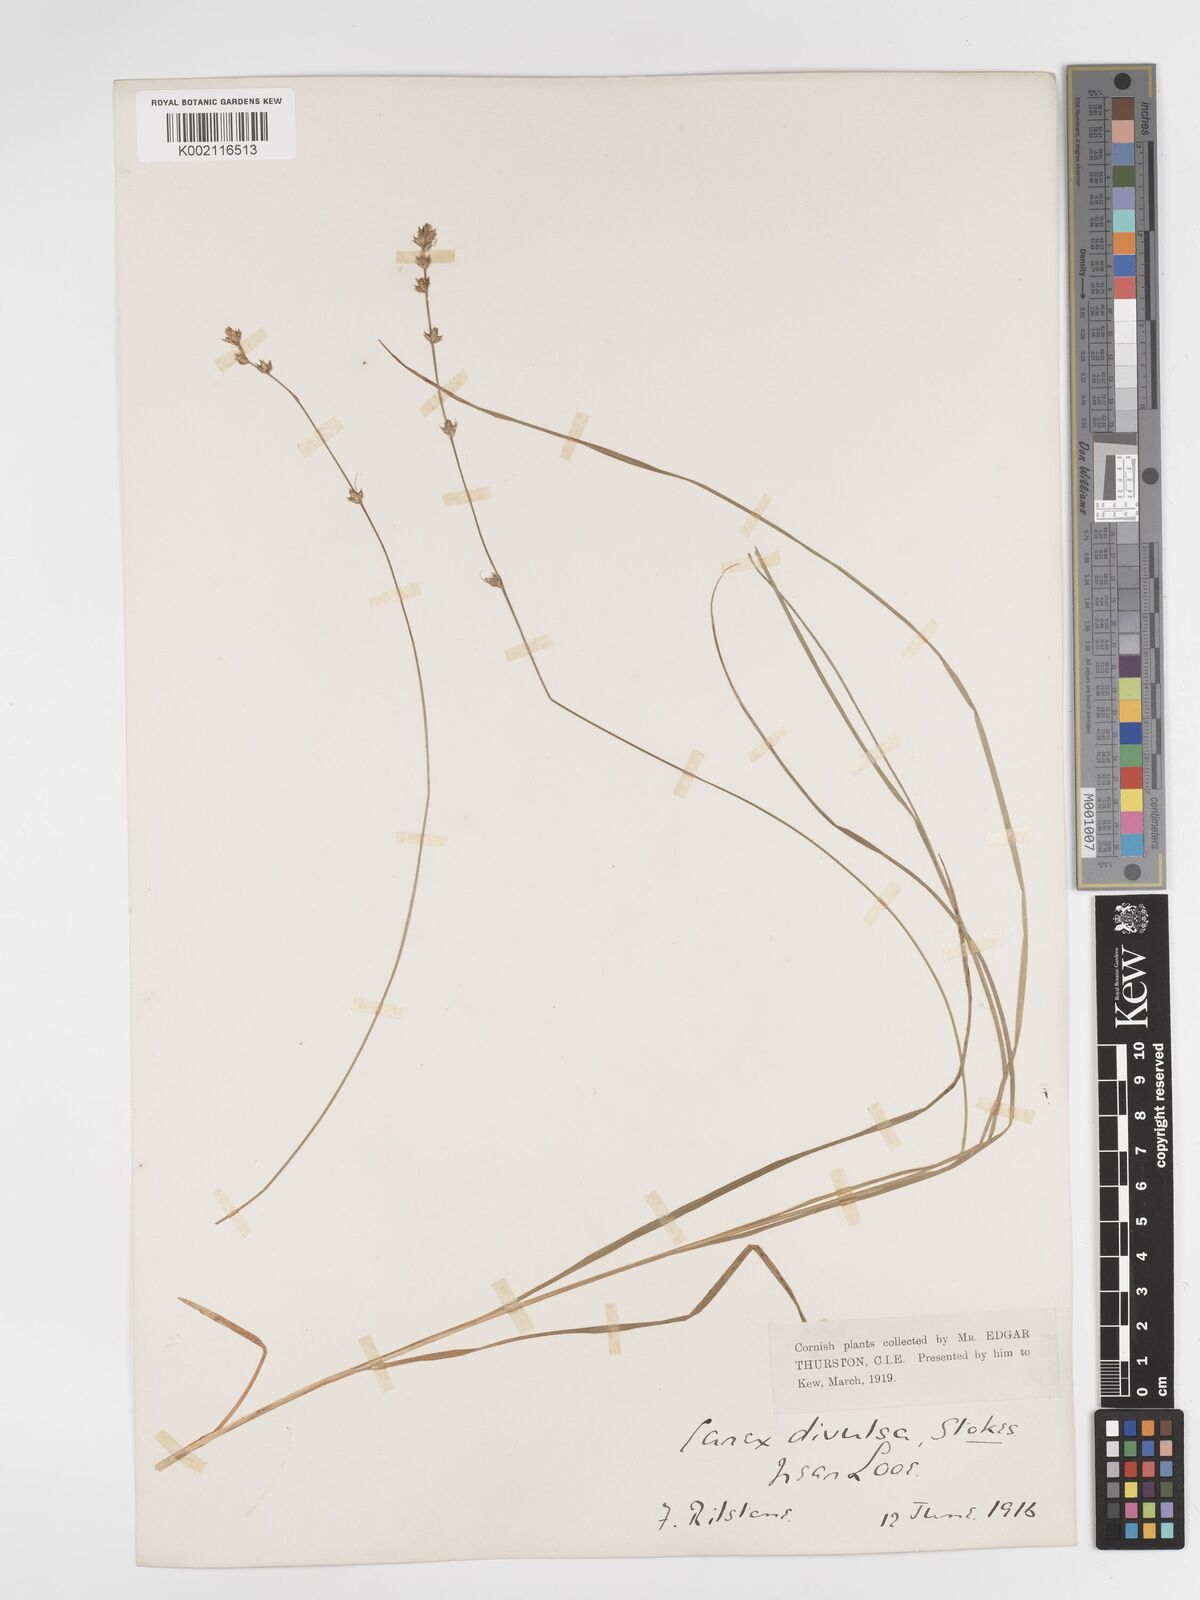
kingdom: Plantae
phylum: Tracheophyta
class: Liliopsida
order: Poales
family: Cyperaceae
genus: Carex
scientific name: Carex divulsa
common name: Grassland sedge
